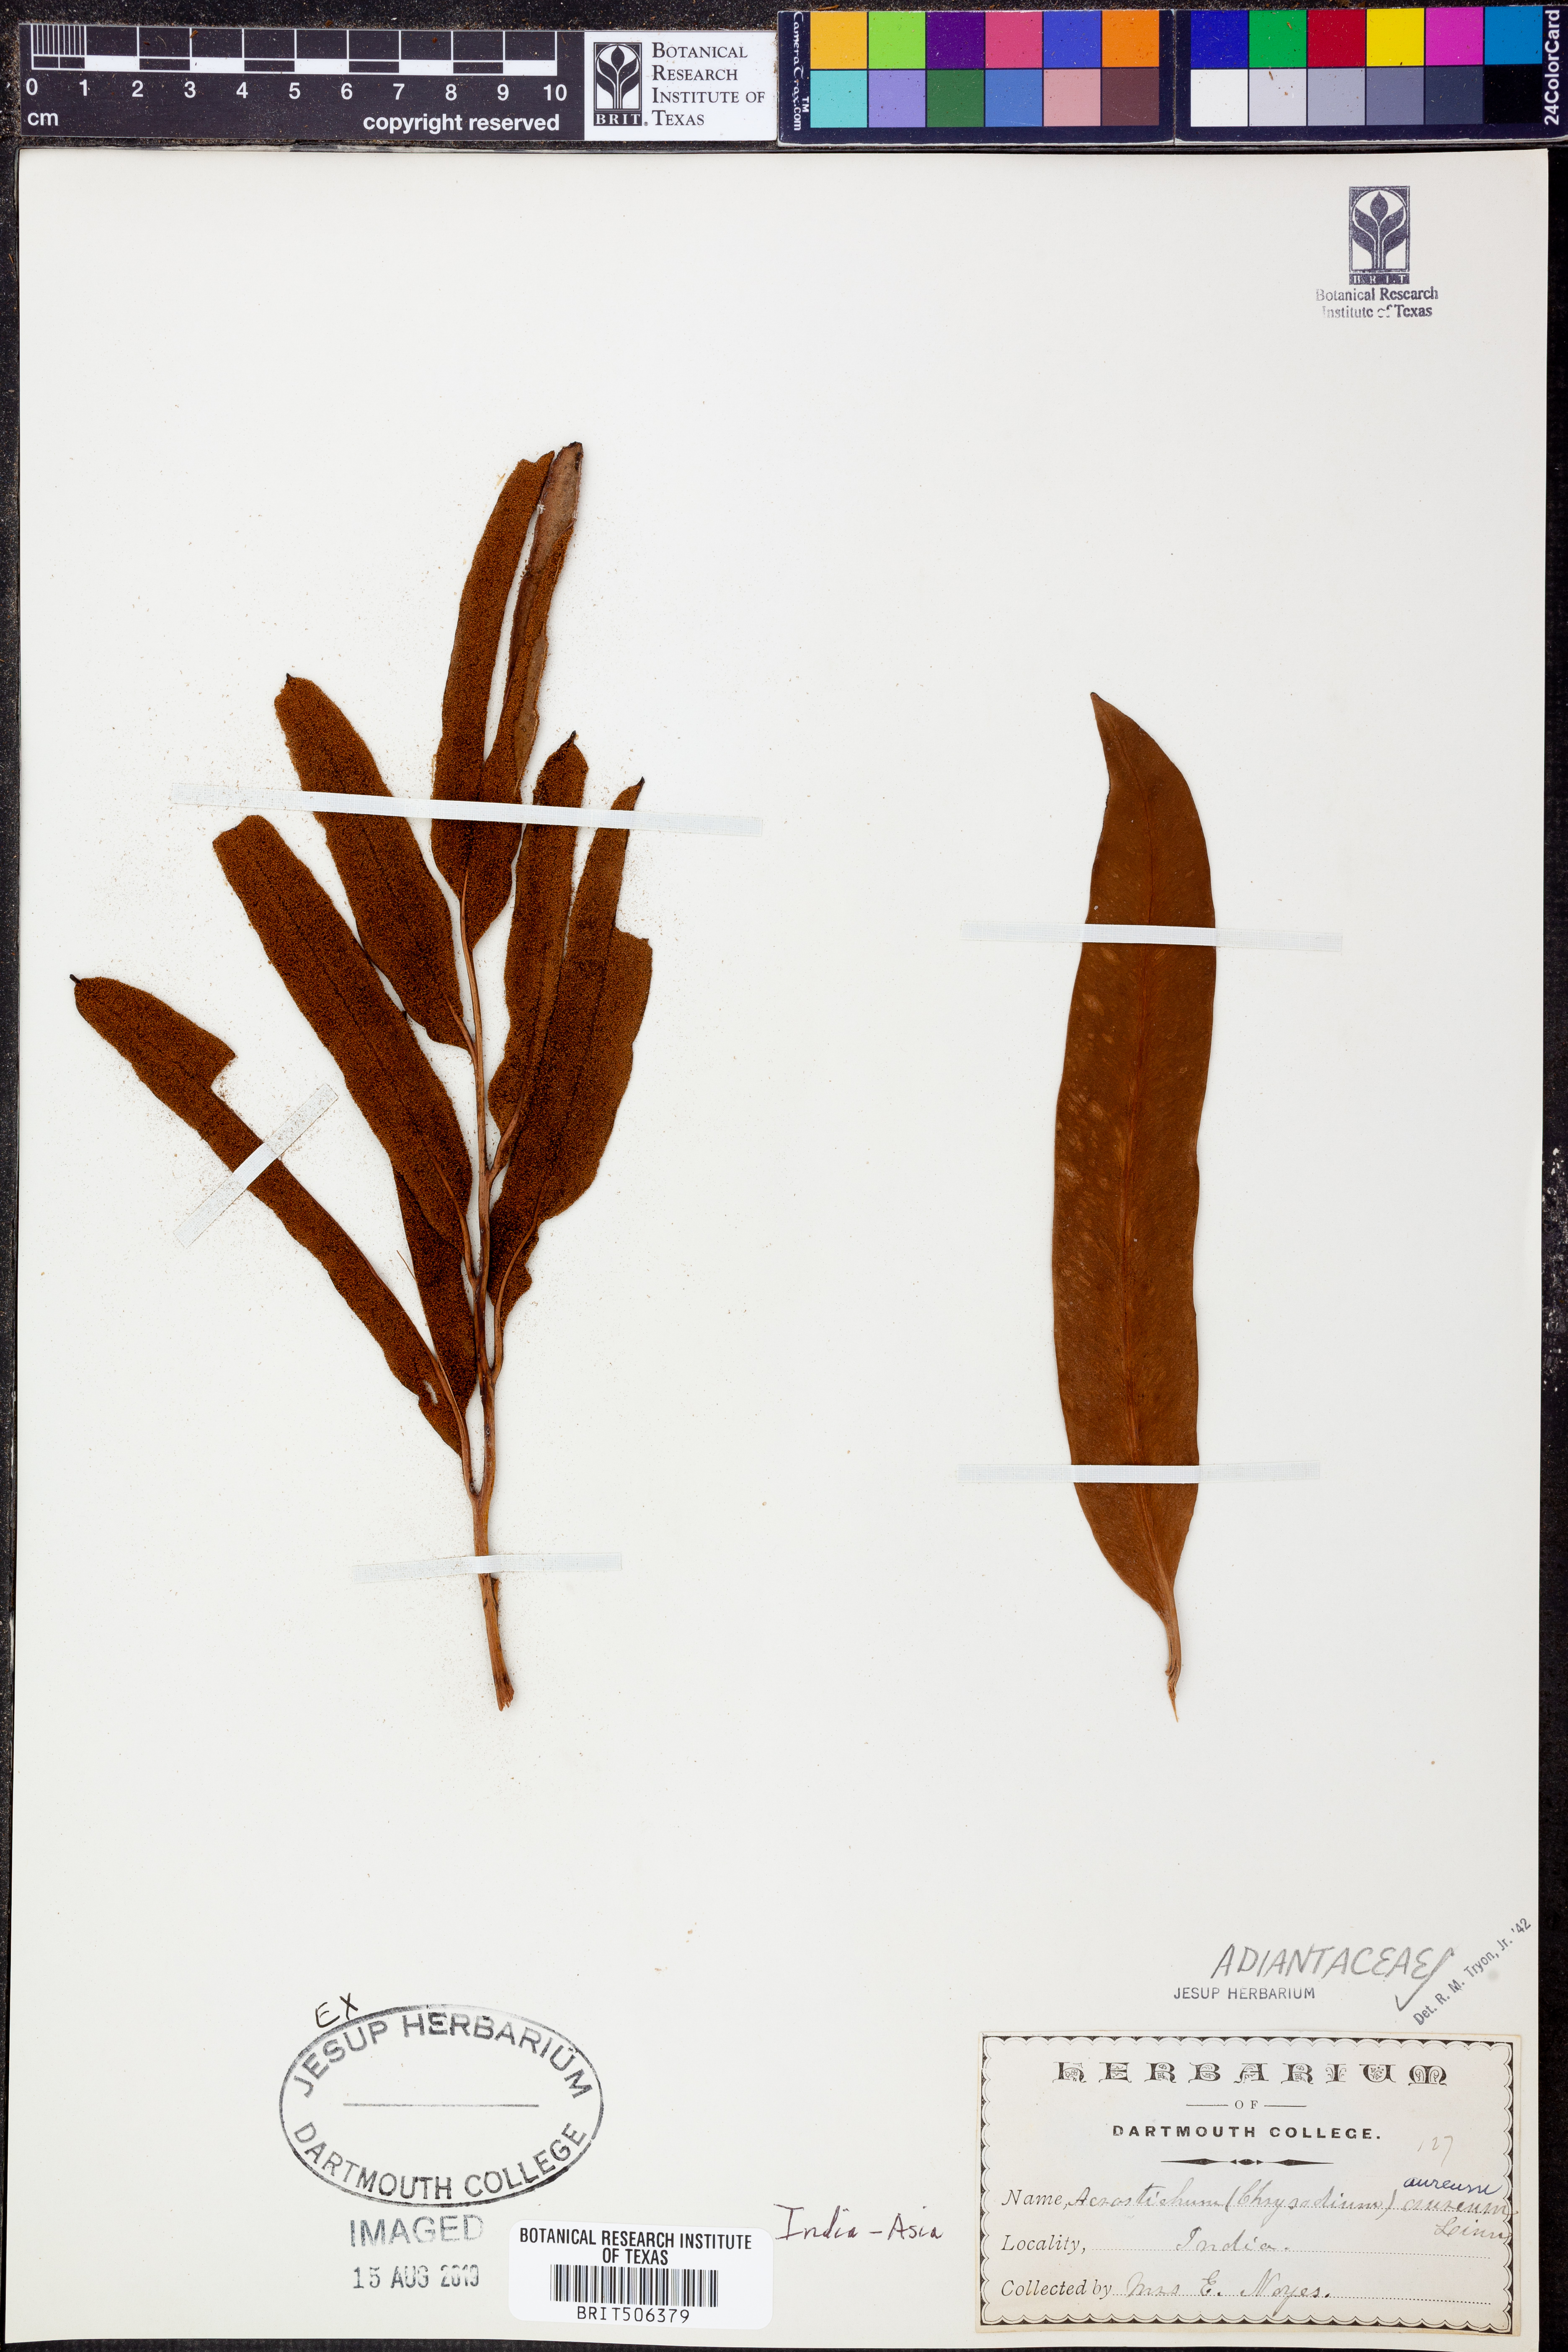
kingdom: Plantae
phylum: Tracheophyta
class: Polypodiopsida
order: Polypodiales
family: Pteridaceae
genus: Acrostichum
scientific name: Acrostichum aureum
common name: Leather fern
